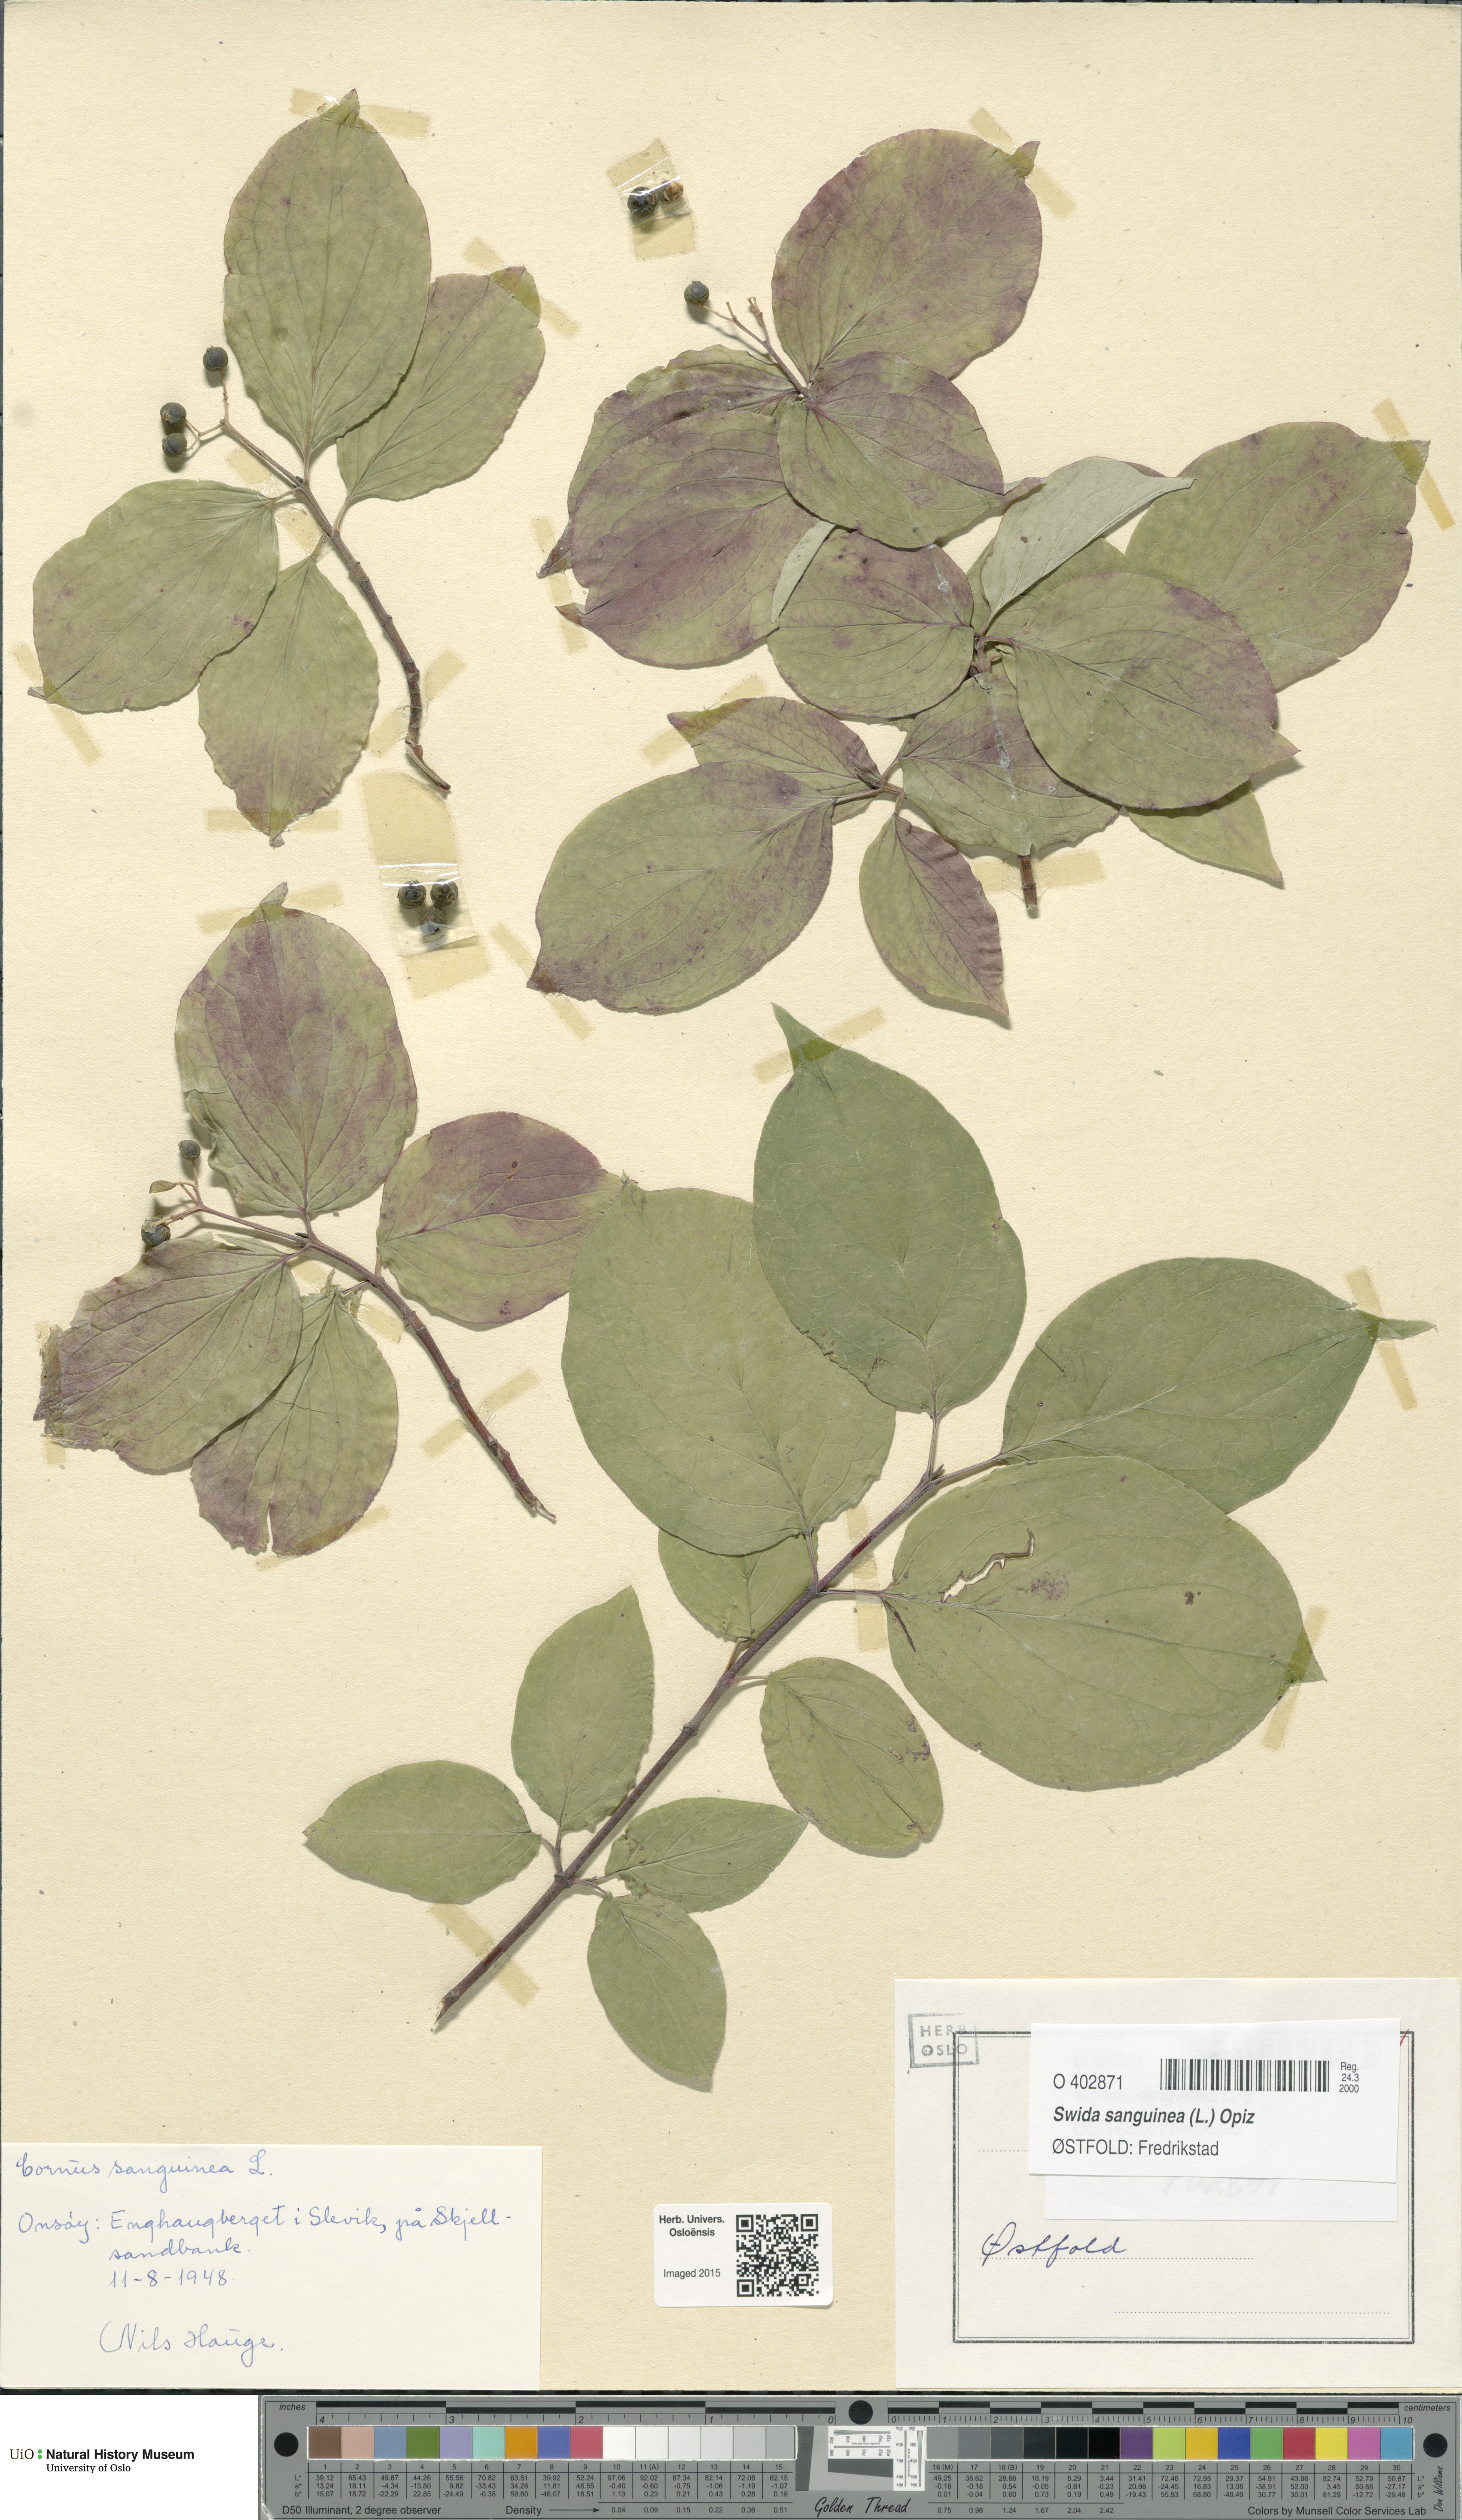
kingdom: Plantae
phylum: Tracheophyta
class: Magnoliopsida
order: Cornales
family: Cornaceae
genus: Cornus
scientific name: Cornus sanguinea
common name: Dogwood
